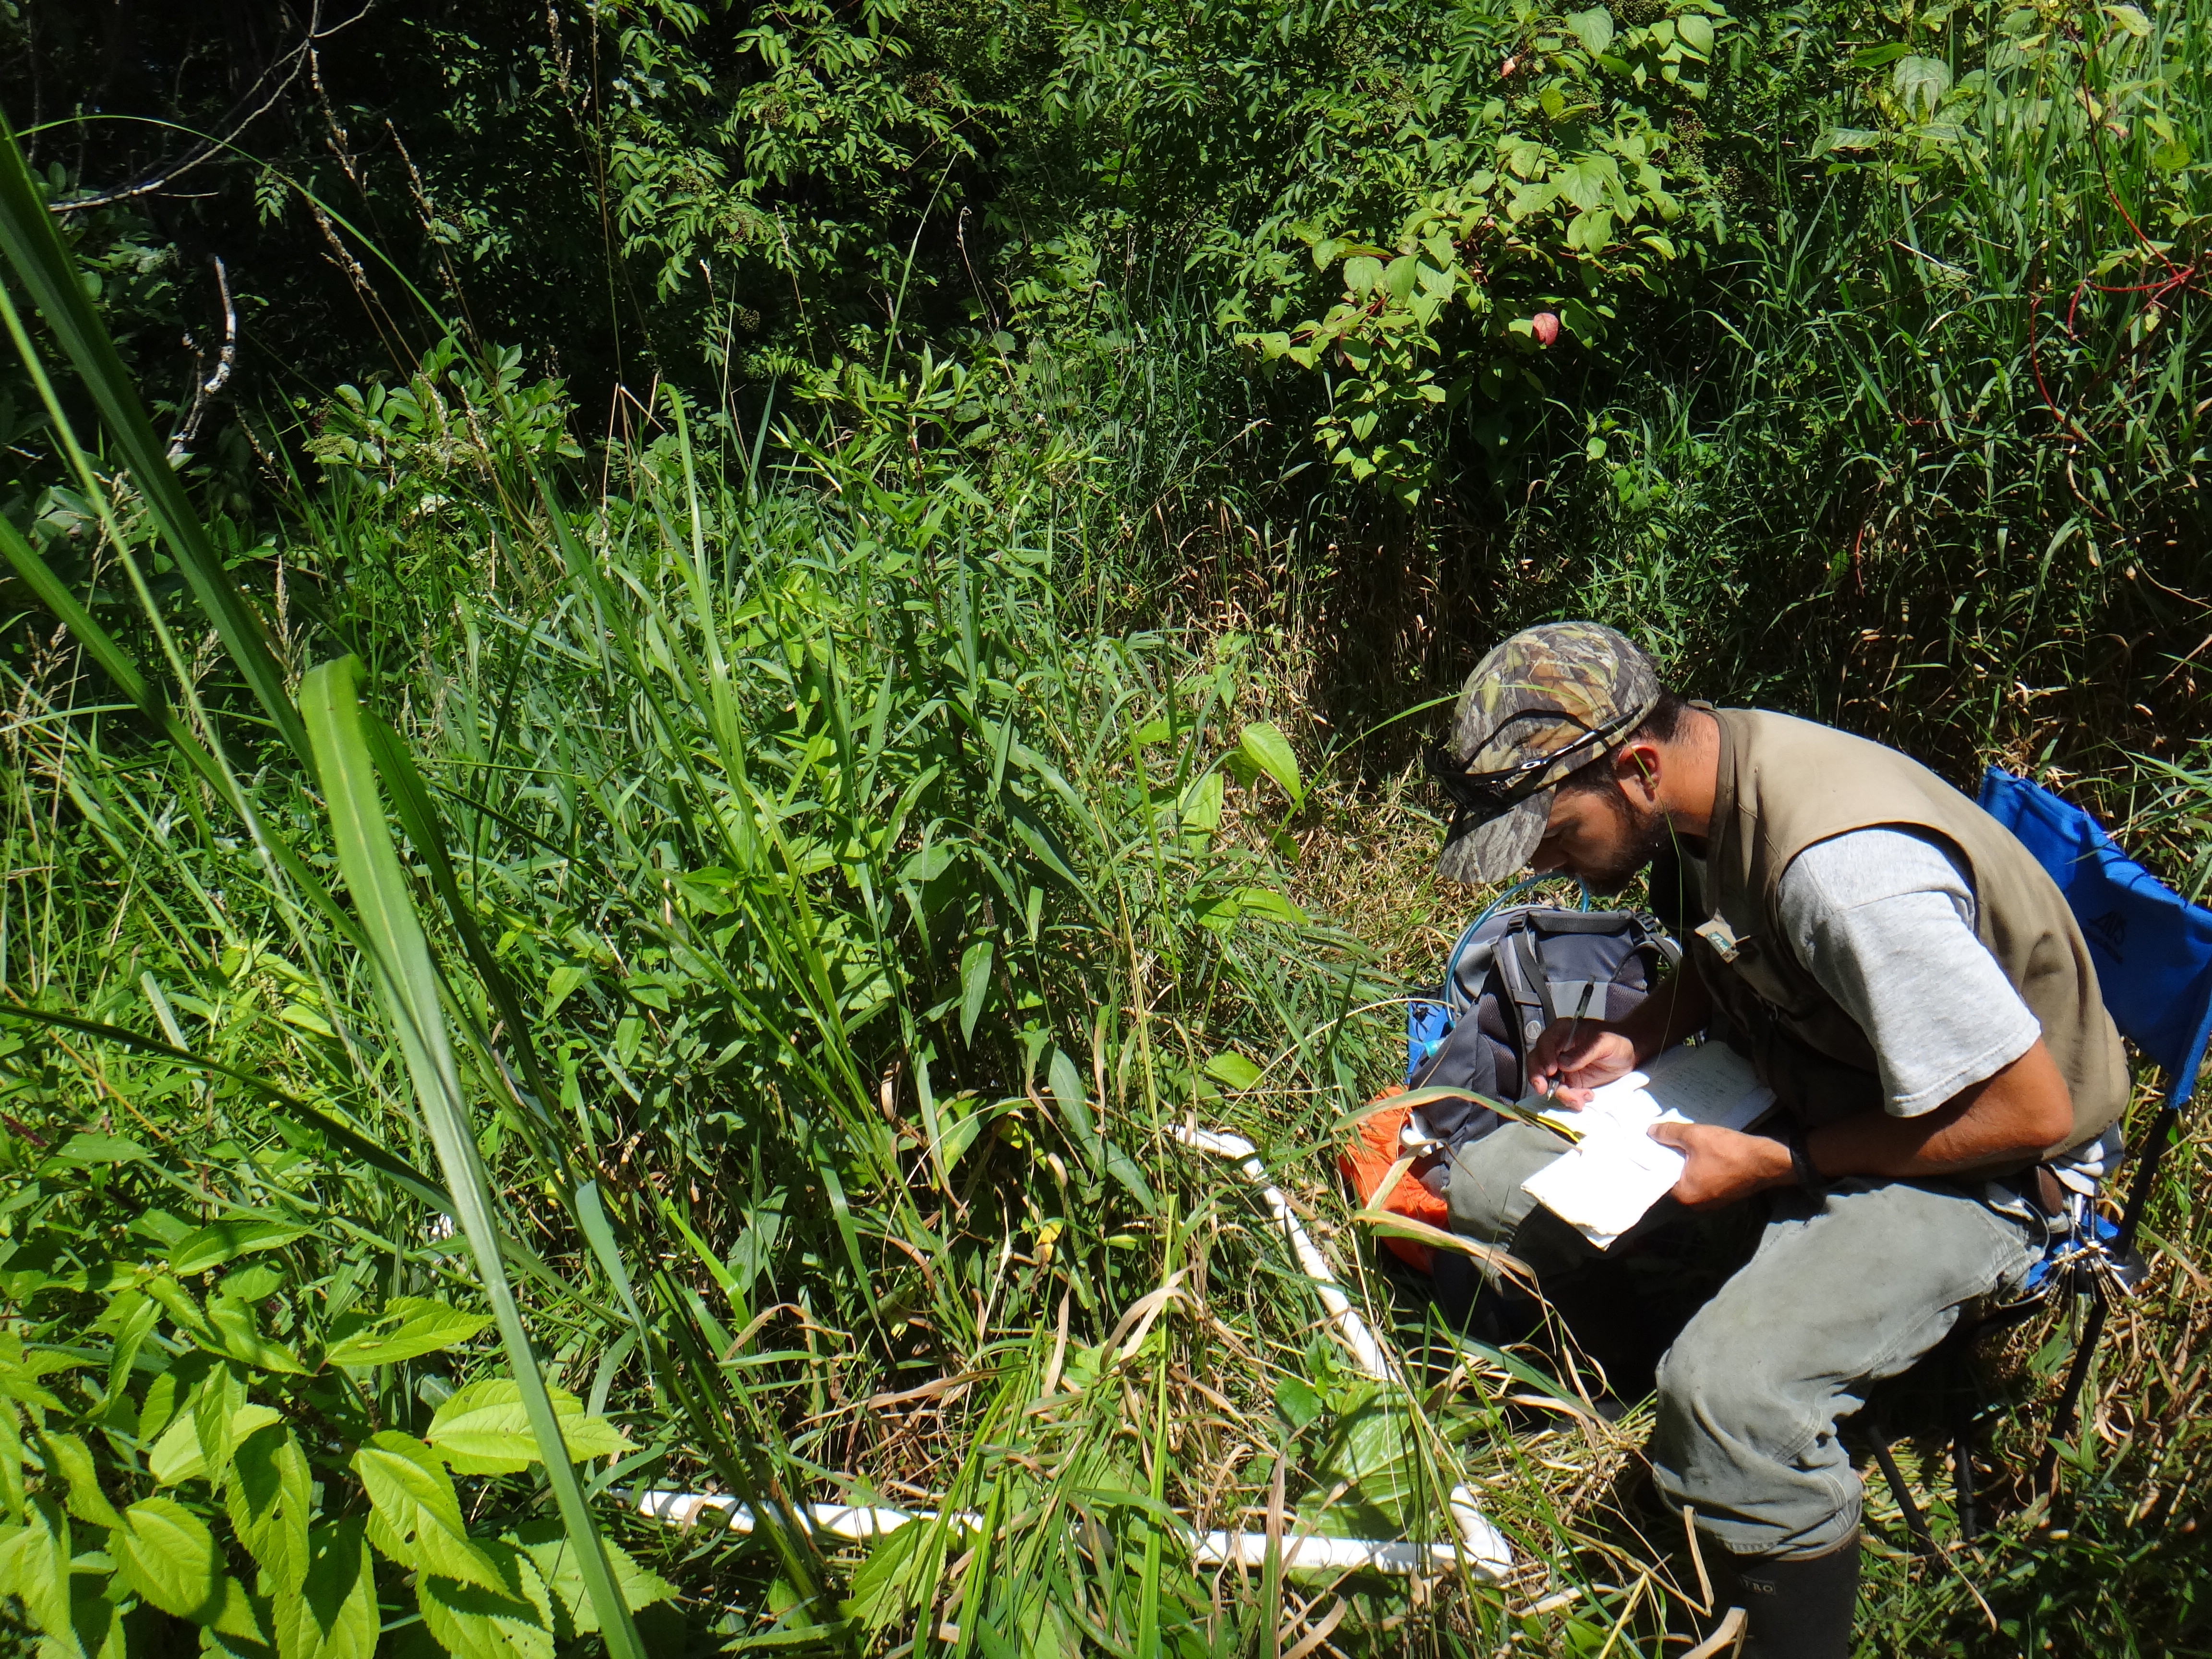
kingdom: Plantae
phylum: Tracheophyta
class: Magnoliopsida
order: Rosales
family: Urticaceae
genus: Boehmeria
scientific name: Boehmeria cylindrica
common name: Bog-hemp
